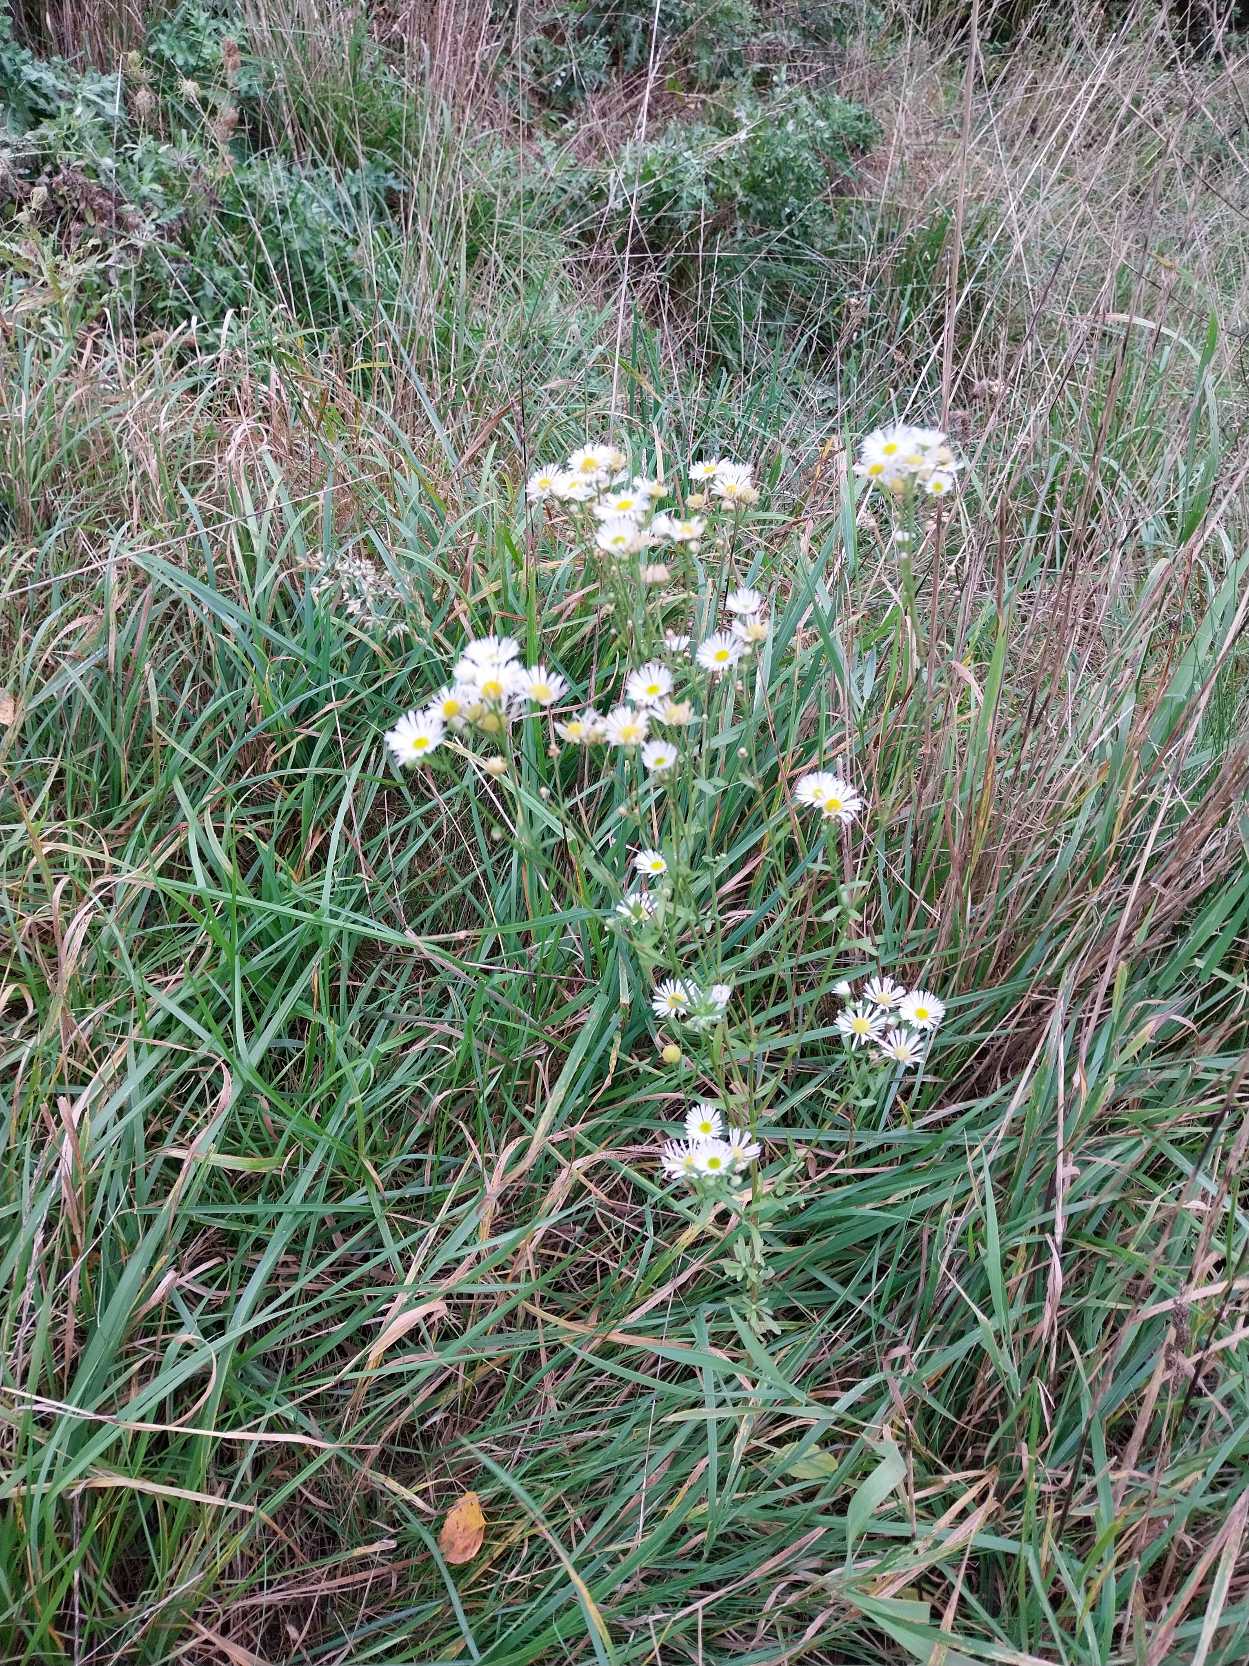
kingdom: Plantae
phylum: Tracheophyta
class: Magnoliopsida
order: Asterales
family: Asteraceae
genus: Erigeron
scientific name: Erigeron annuus
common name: Smalstråle
